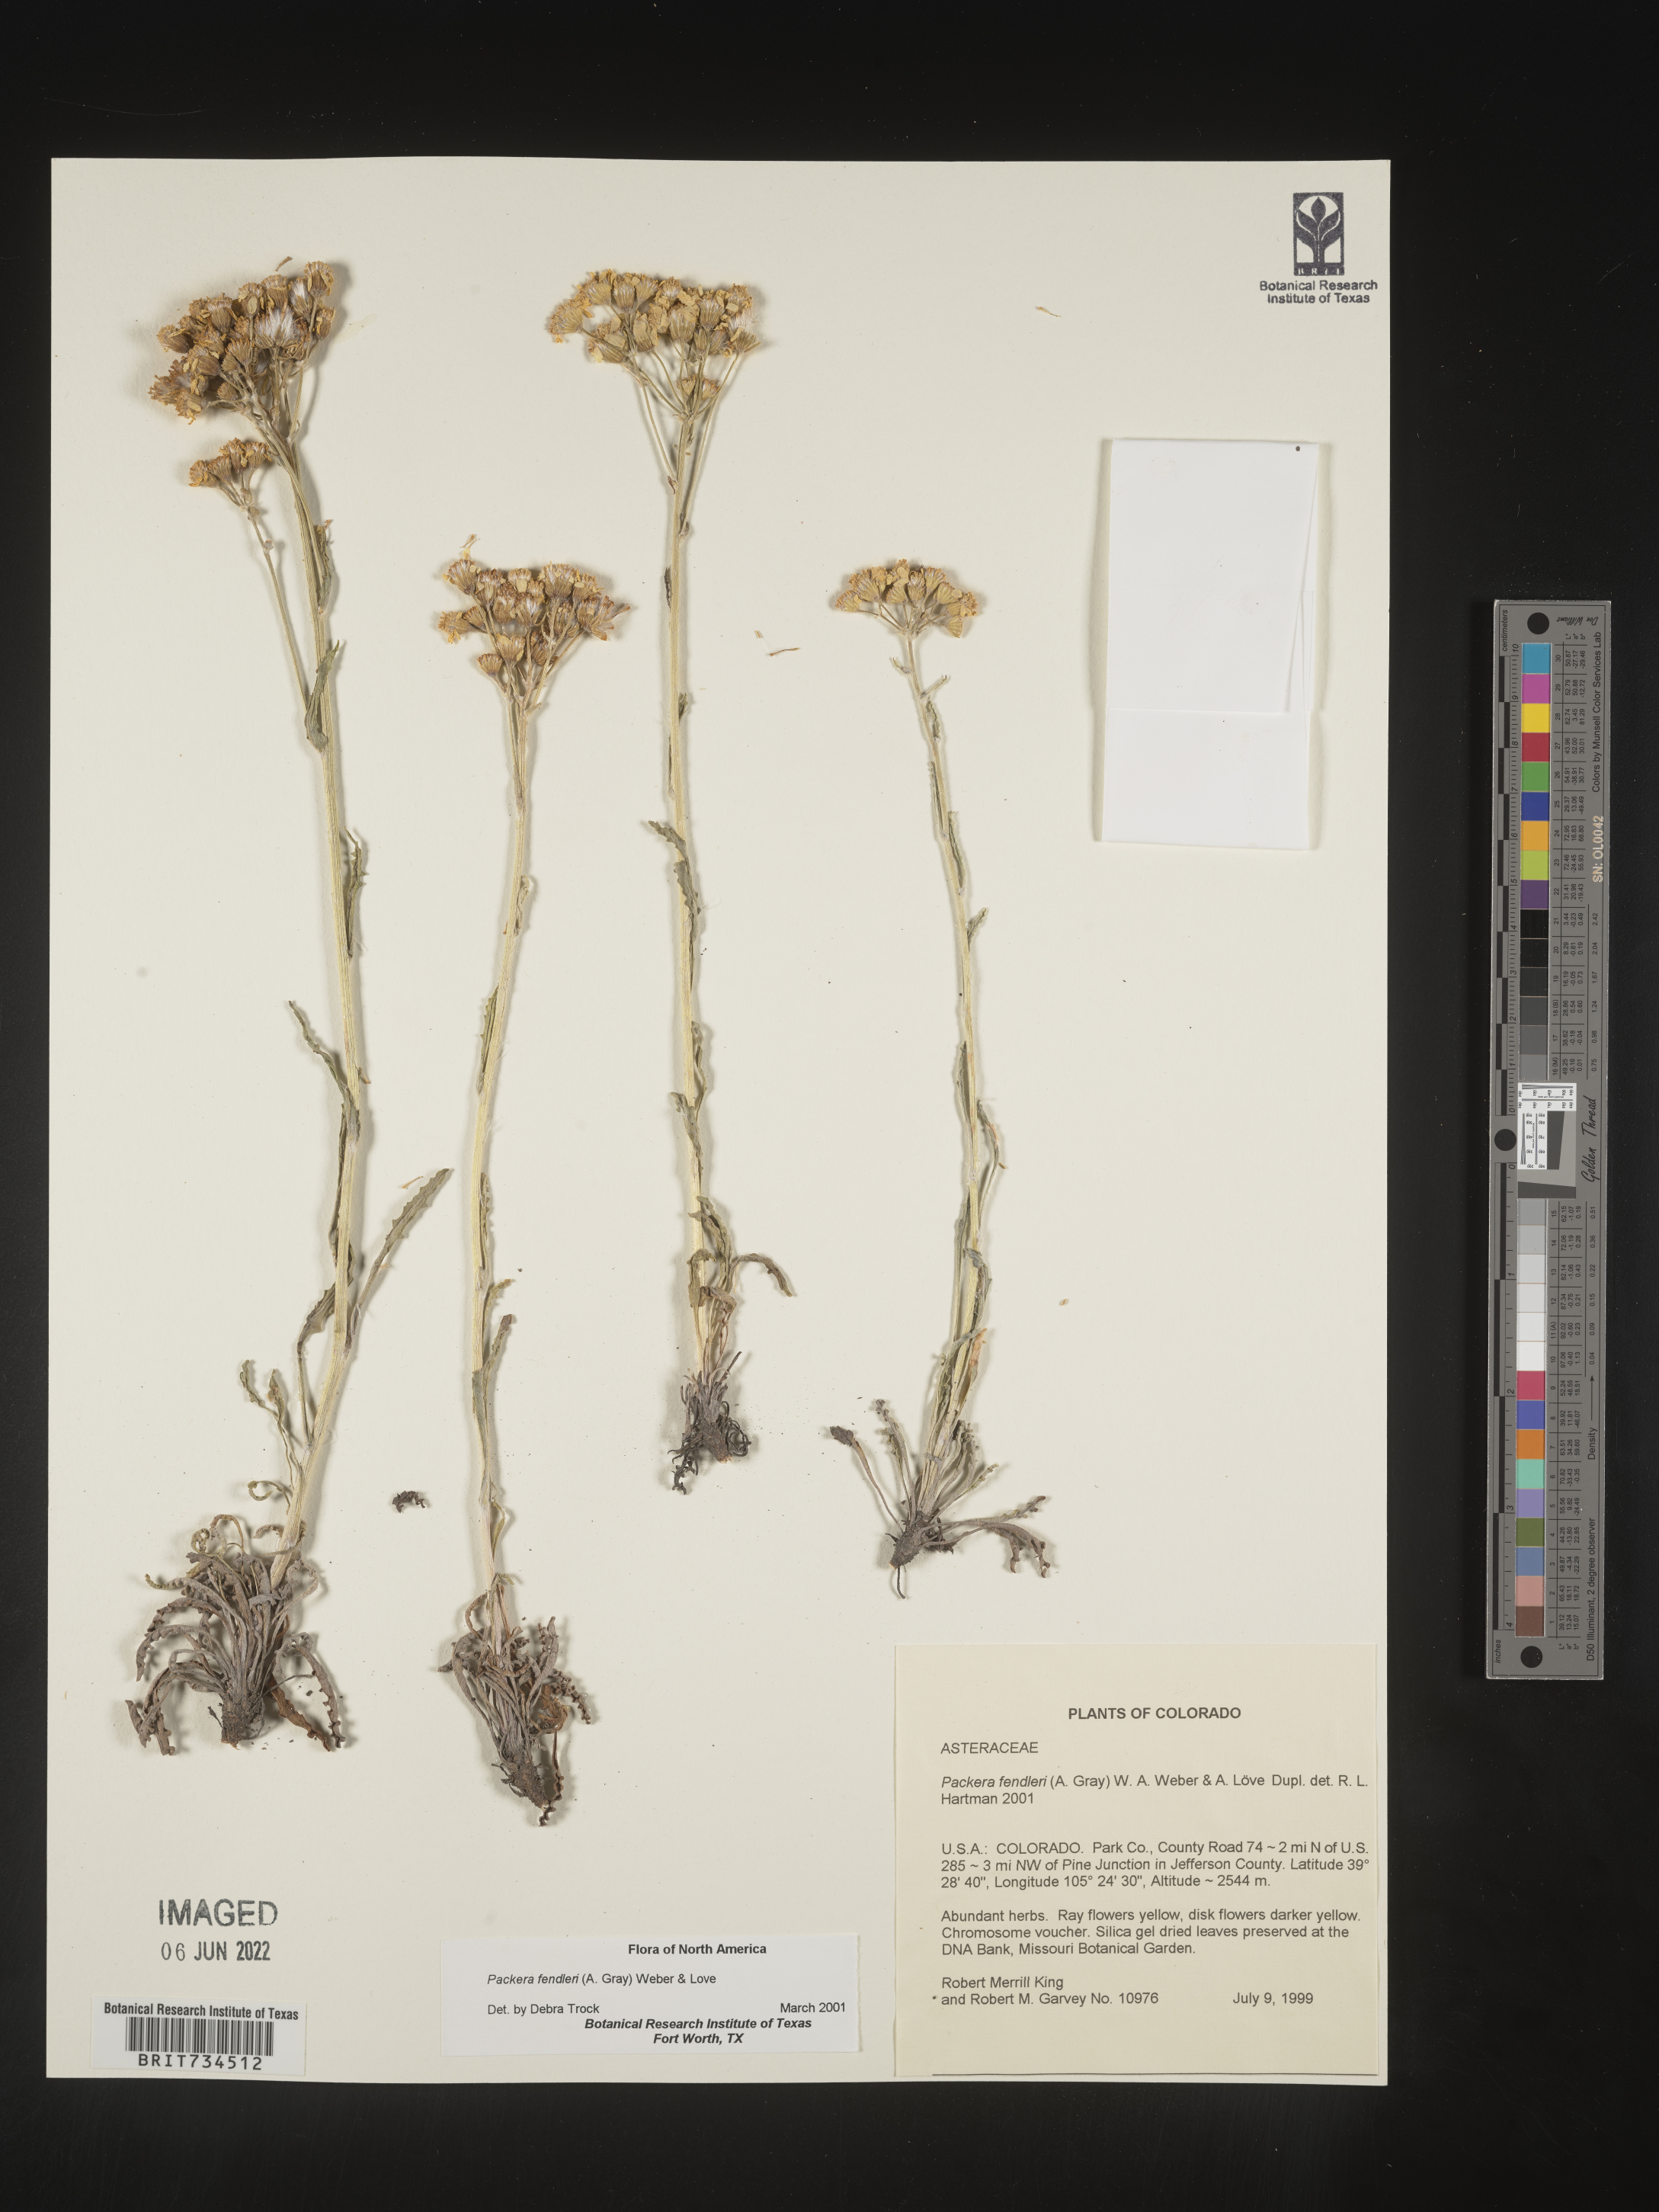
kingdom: Plantae
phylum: Tracheophyta
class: Magnoliopsida
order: Asterales
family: Asteraceae
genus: Packera
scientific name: Packera fendleri
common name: Notch-leaf butterweed
